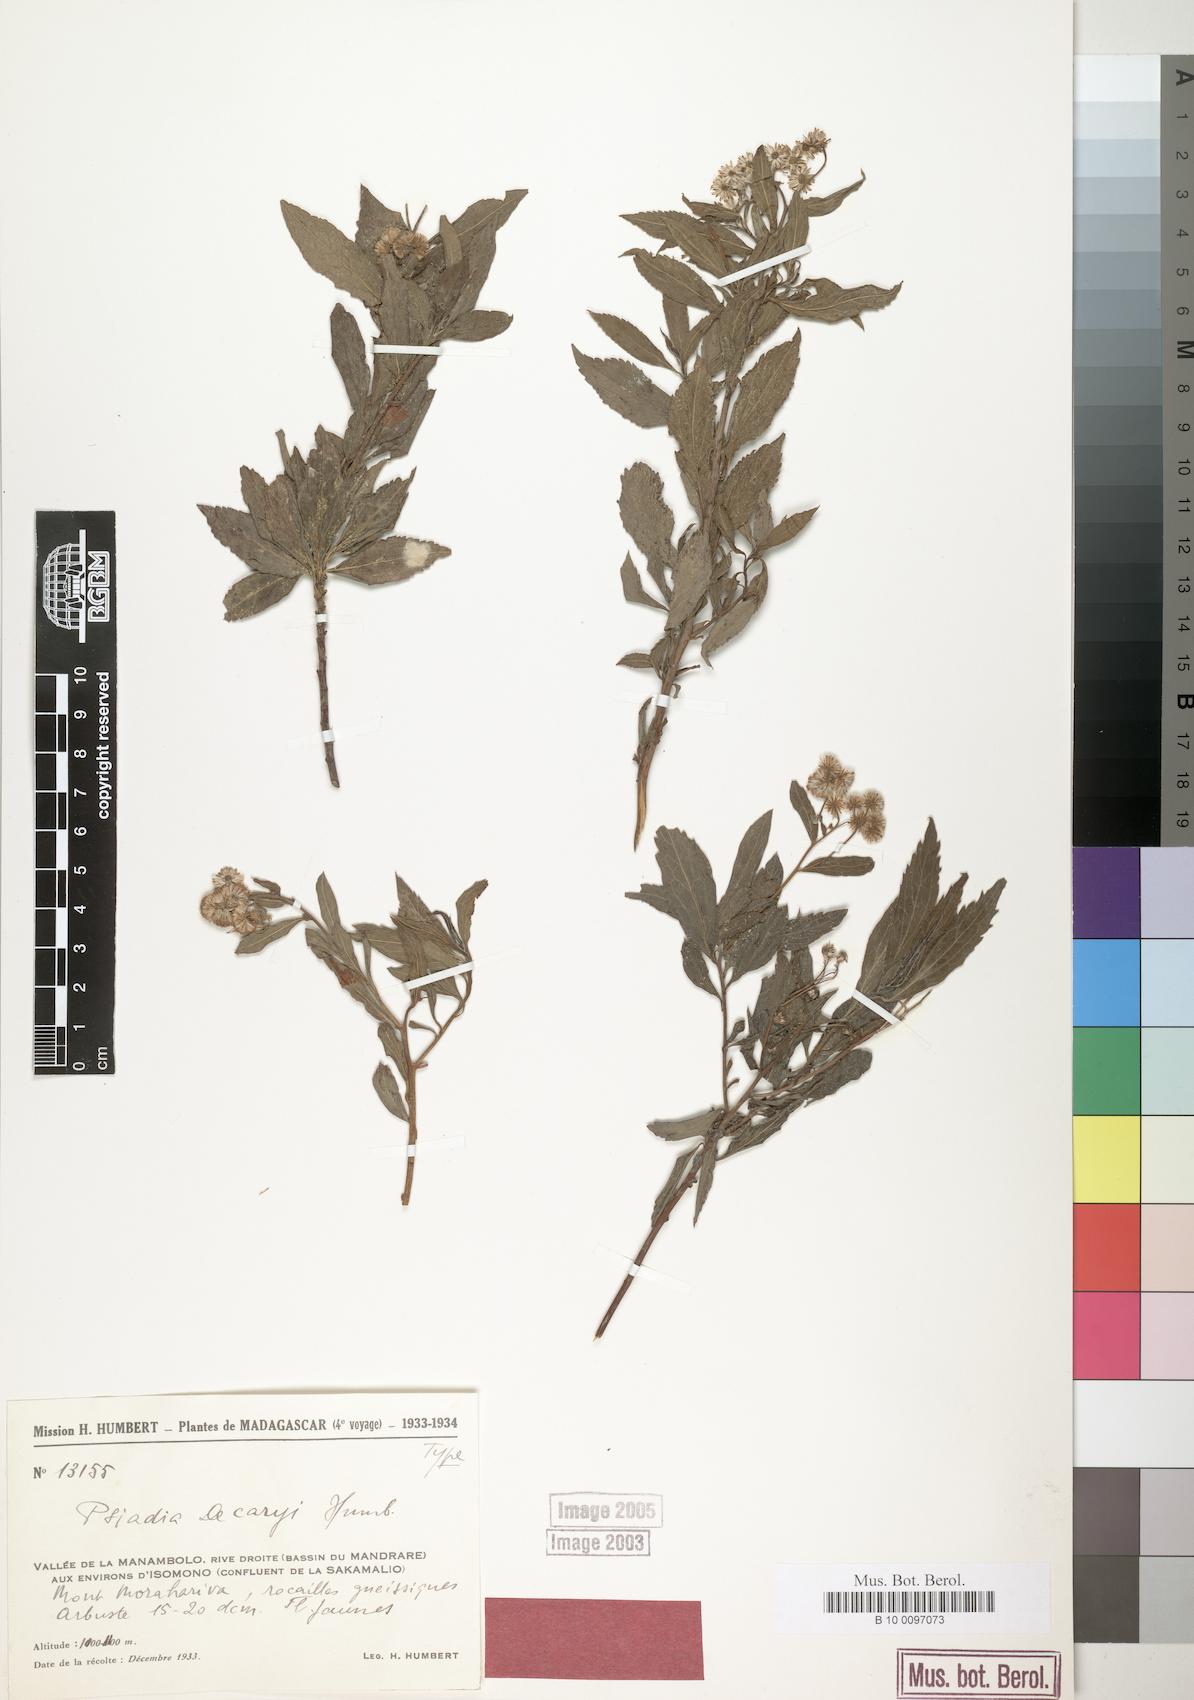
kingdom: Plantae
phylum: Tracheophyta
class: Magnoliopsida
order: Asterales
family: Asteraceae
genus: Psiadia
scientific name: Psiadia decaryi
